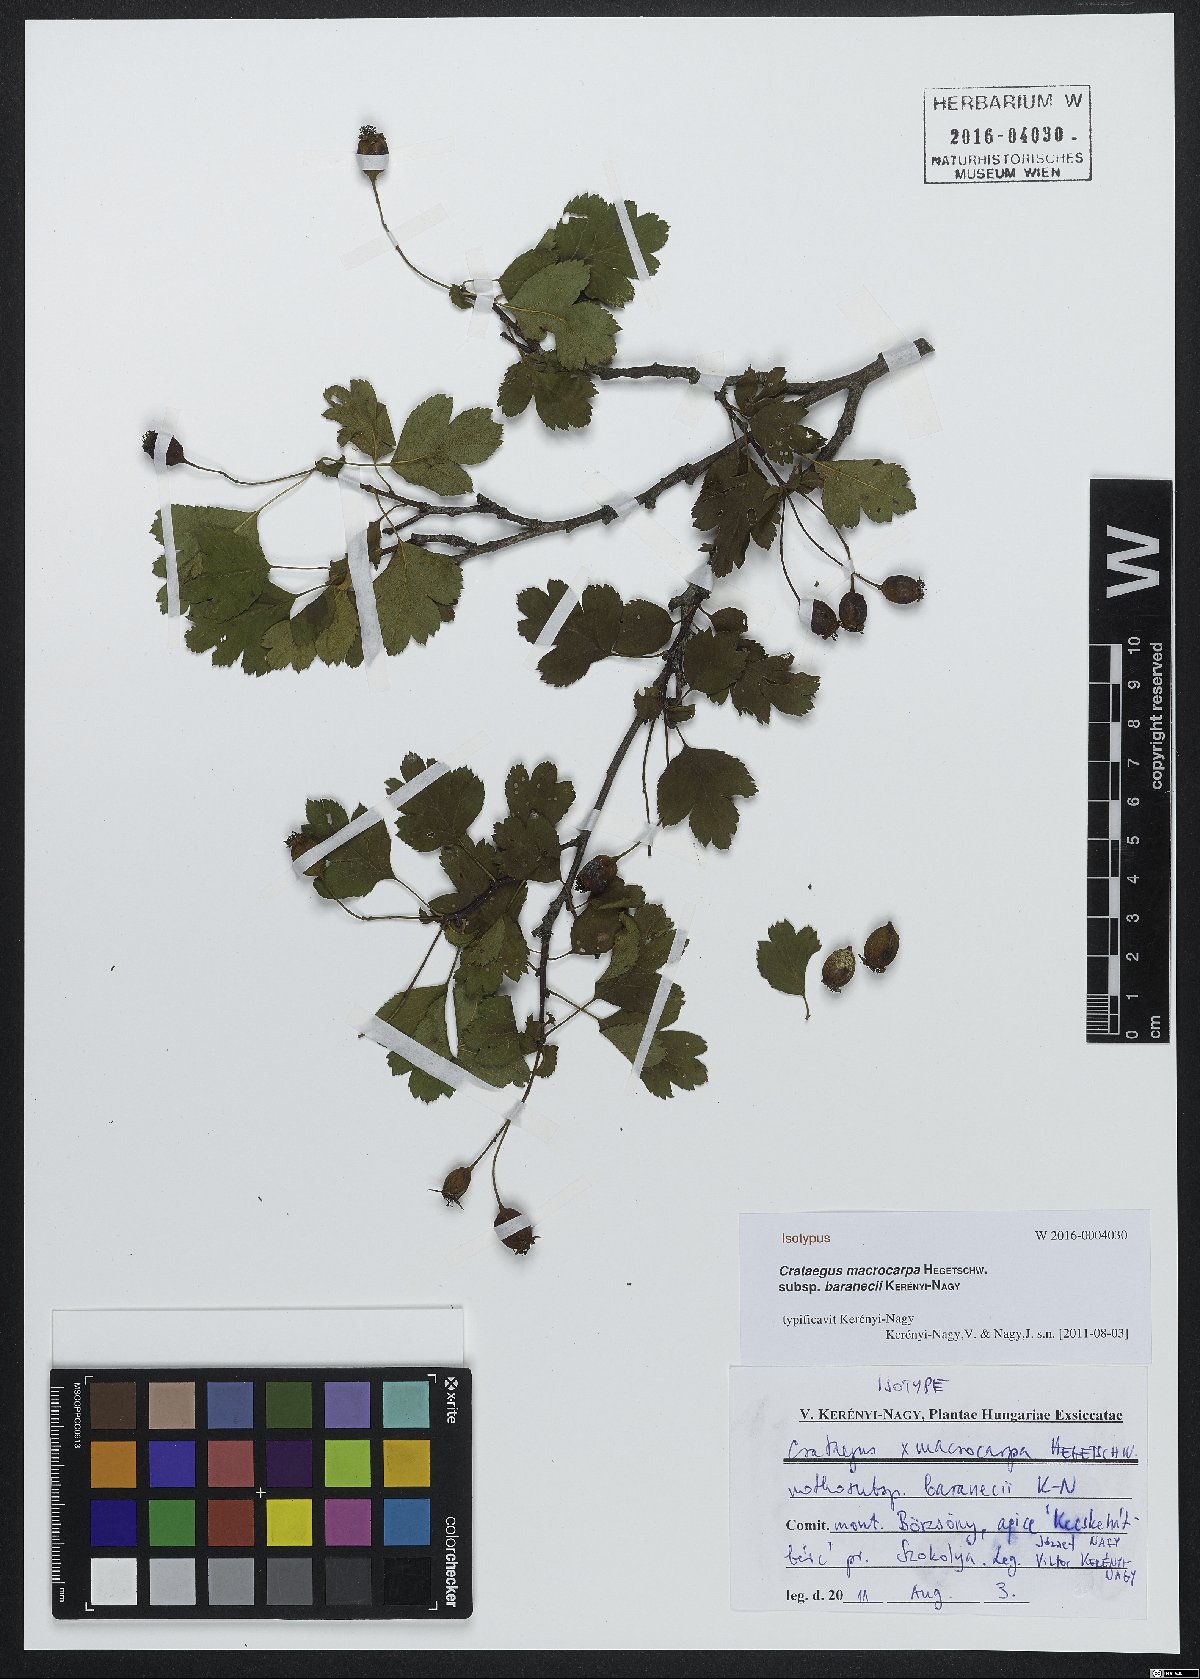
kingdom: Plantae
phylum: Tracheophyta
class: Magnoliopsida
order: Rosales
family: Rosaceae
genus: Crataegus
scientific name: Crataegus macrocarpa
